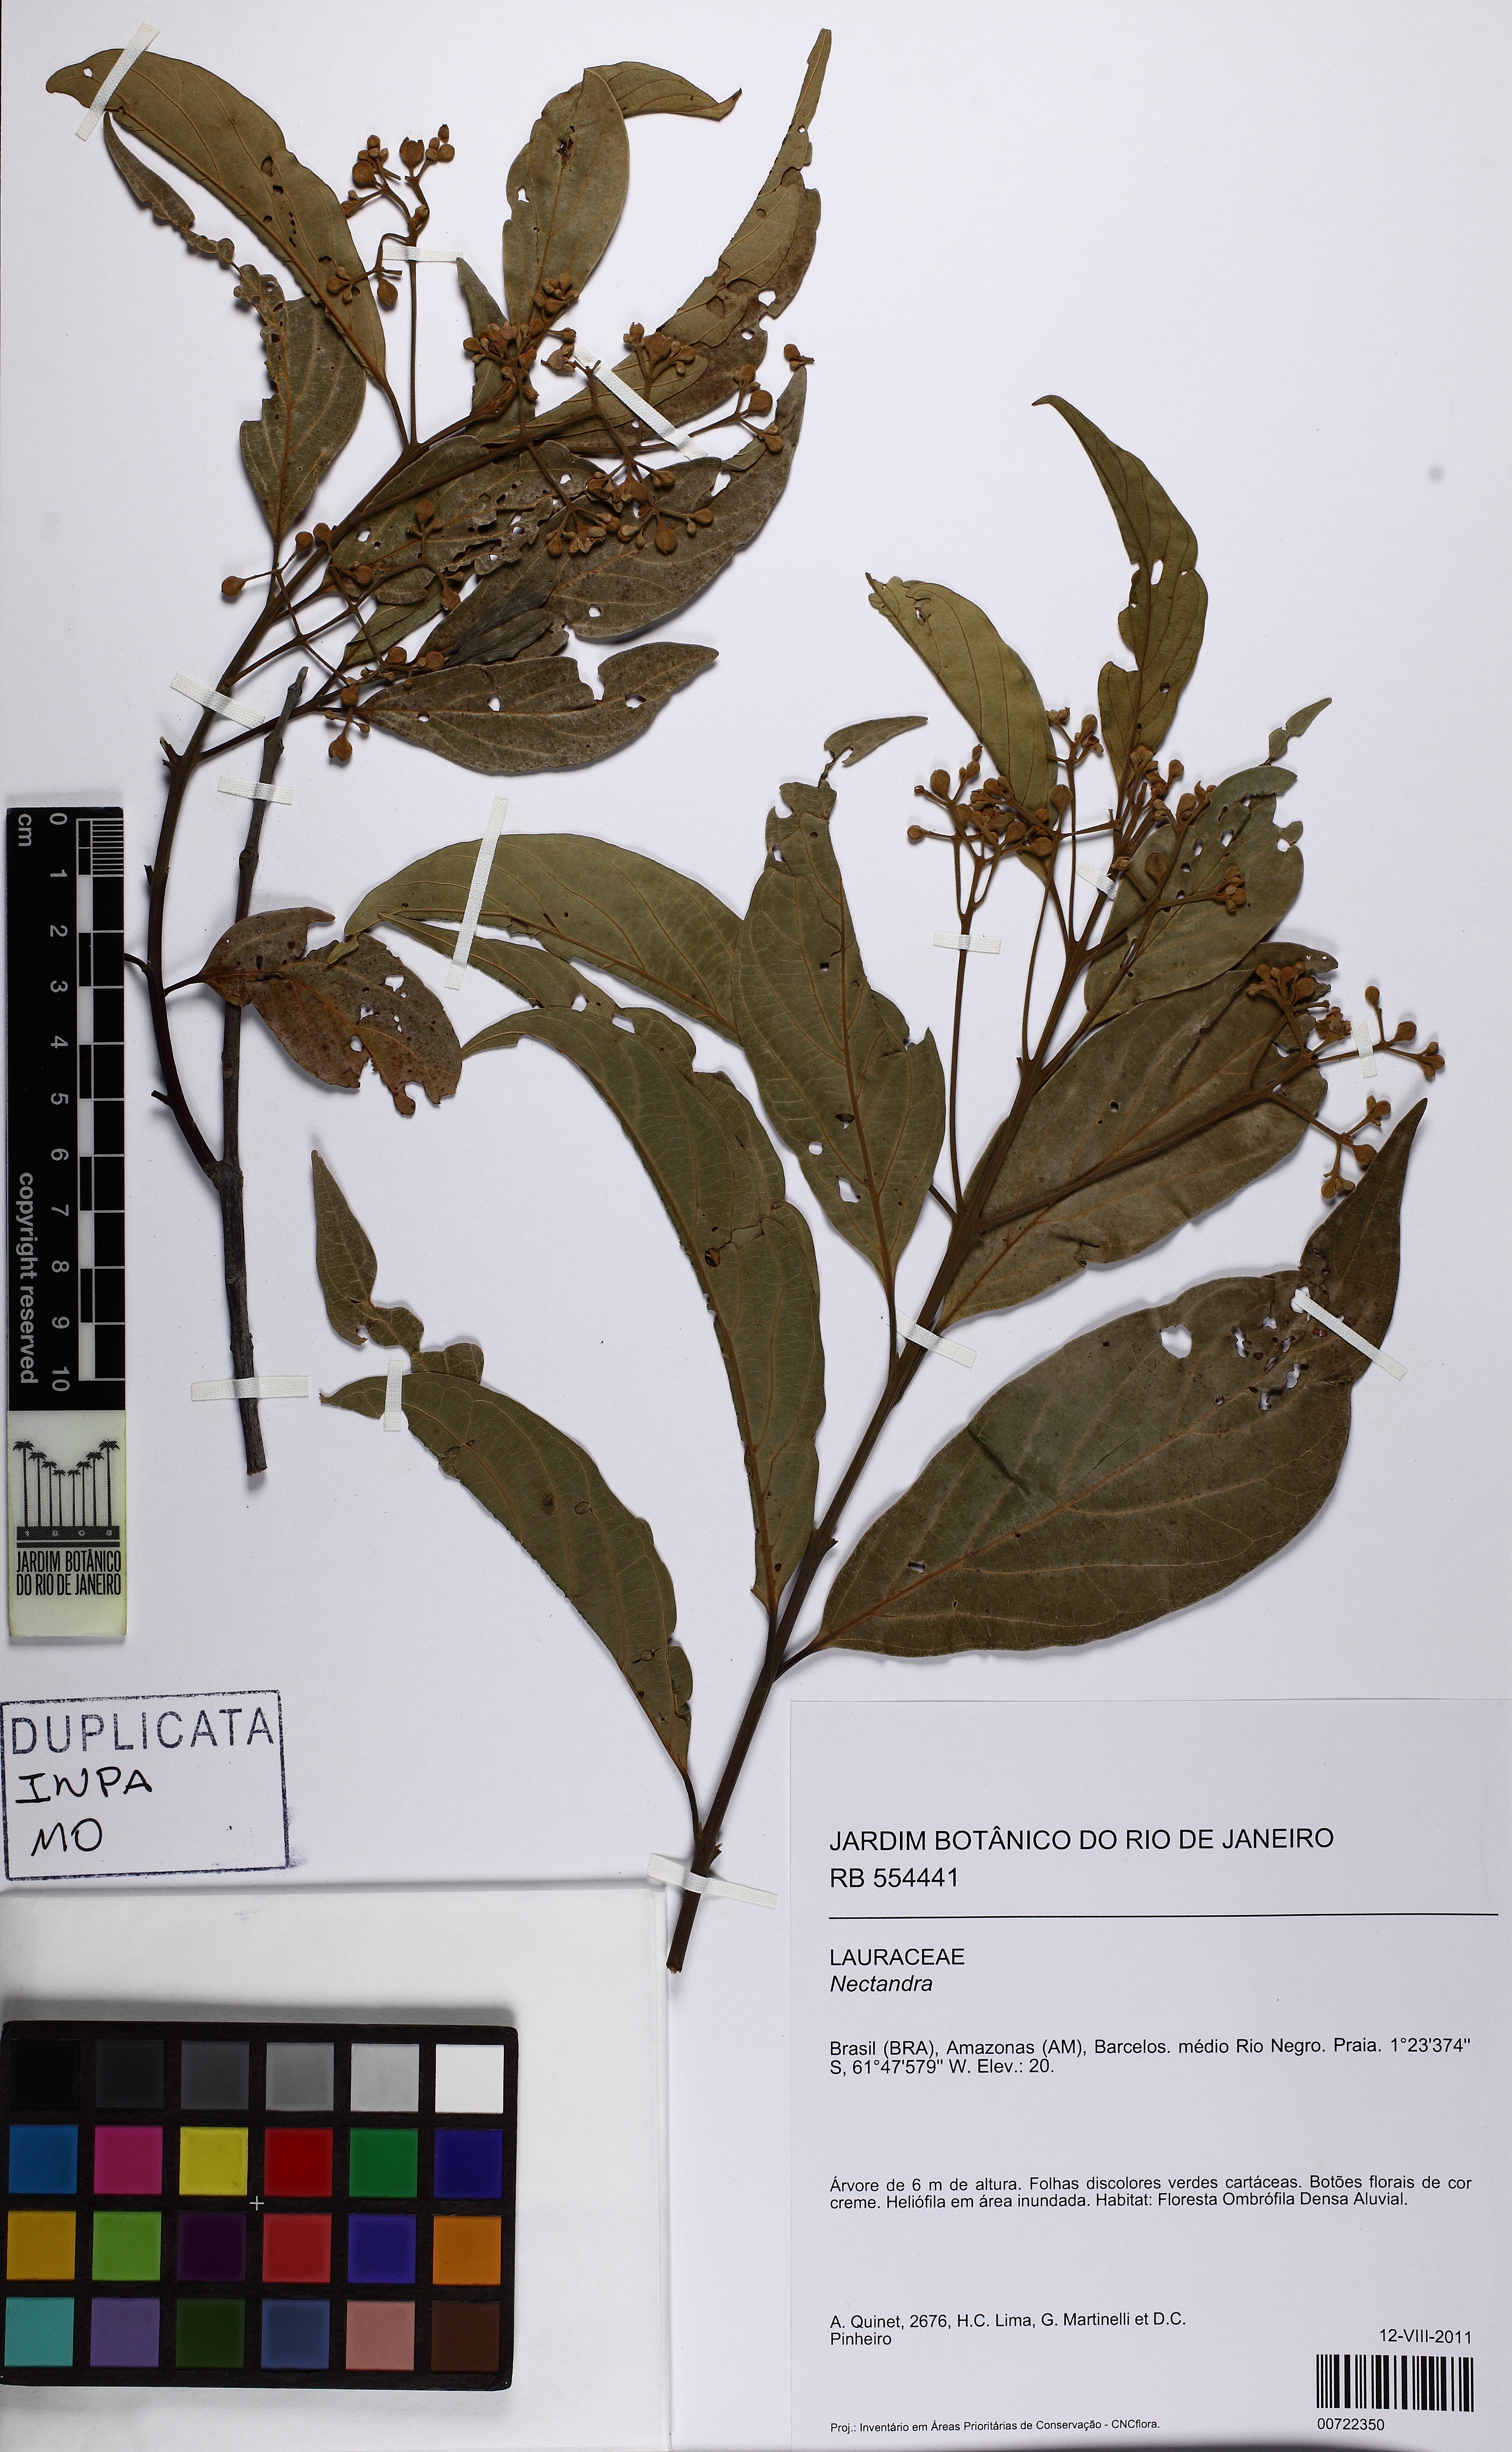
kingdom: Plantae
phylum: Tracheophyta
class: Magnoliopsida
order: Laurales
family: Lauraceae
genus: Nectandra
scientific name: Nectandra
